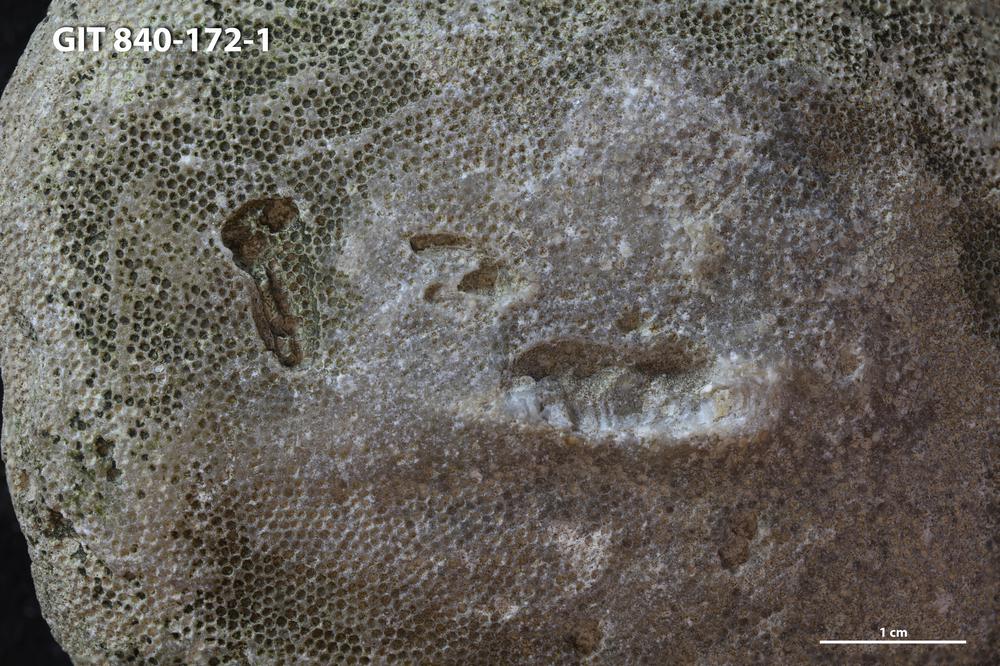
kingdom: Animalia
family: Cornulitidae
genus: Cornulites
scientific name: Cornulites
